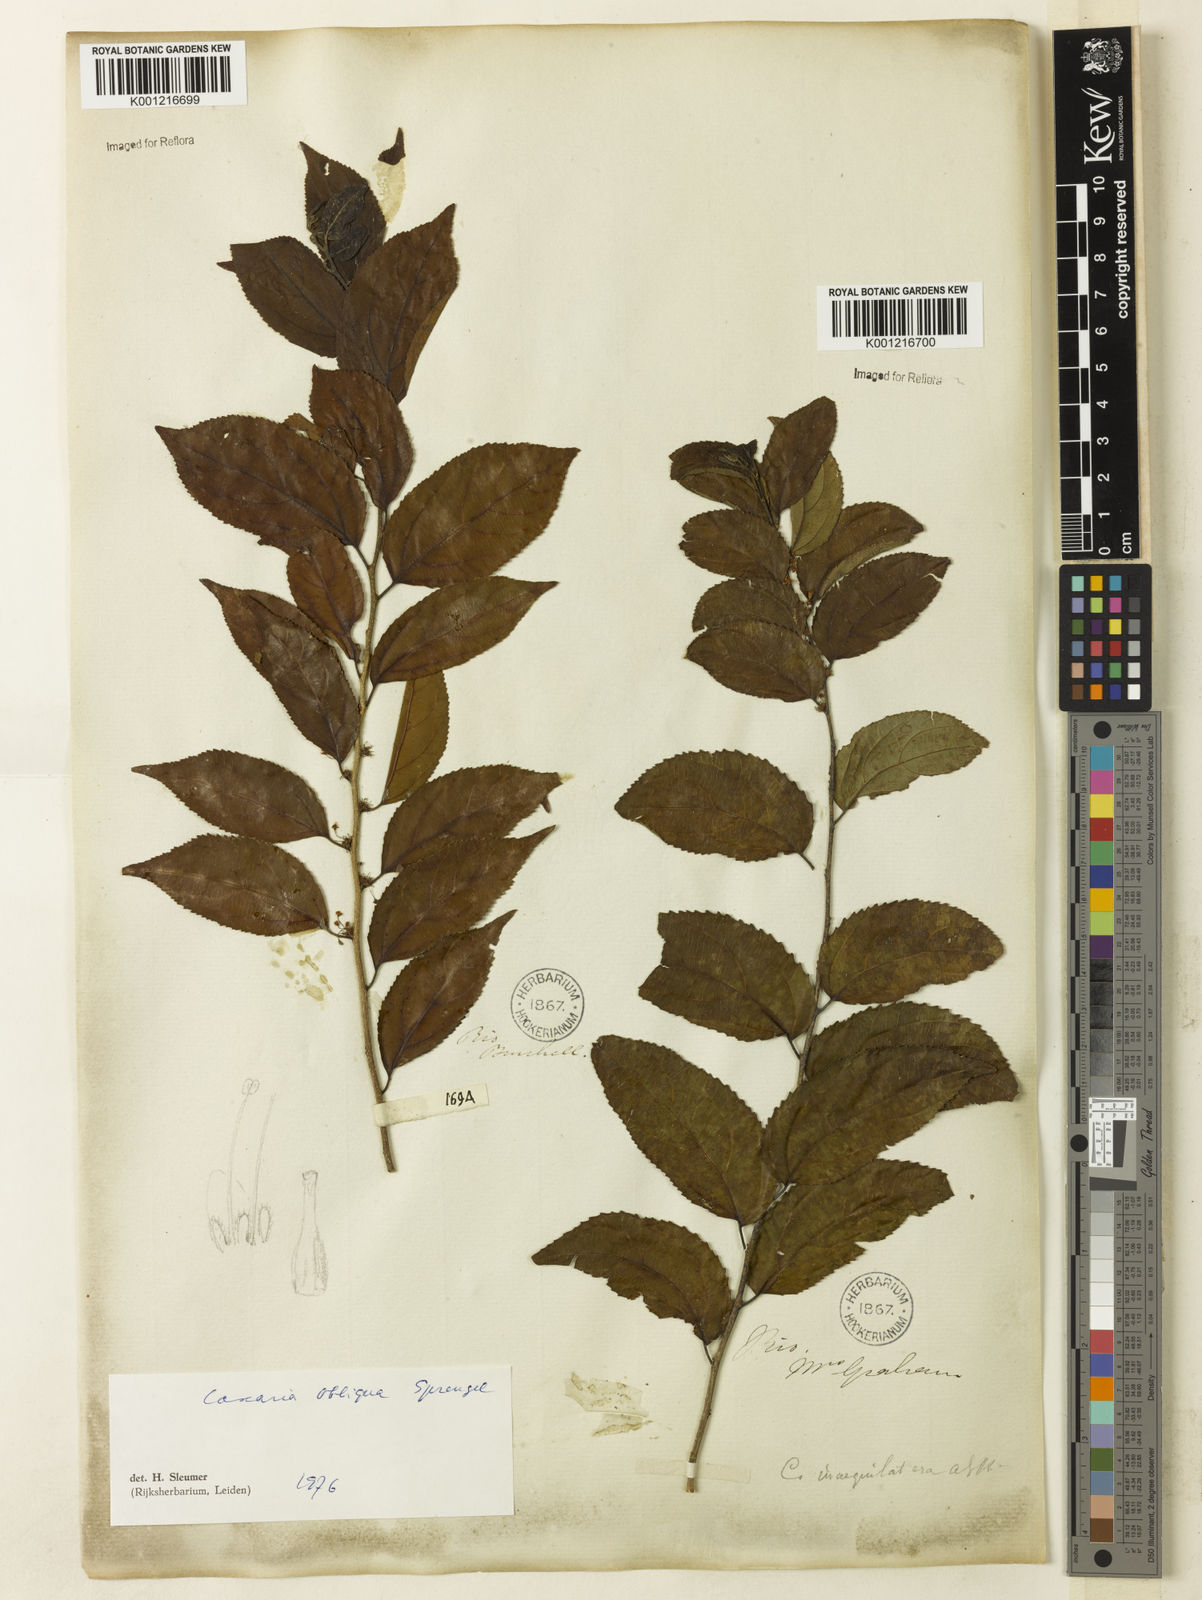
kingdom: Plantae
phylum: Tracheophyta
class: Magnoliopsida
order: Malpighiales
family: Salicaceae
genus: Casearia
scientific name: Casearia obliqua
